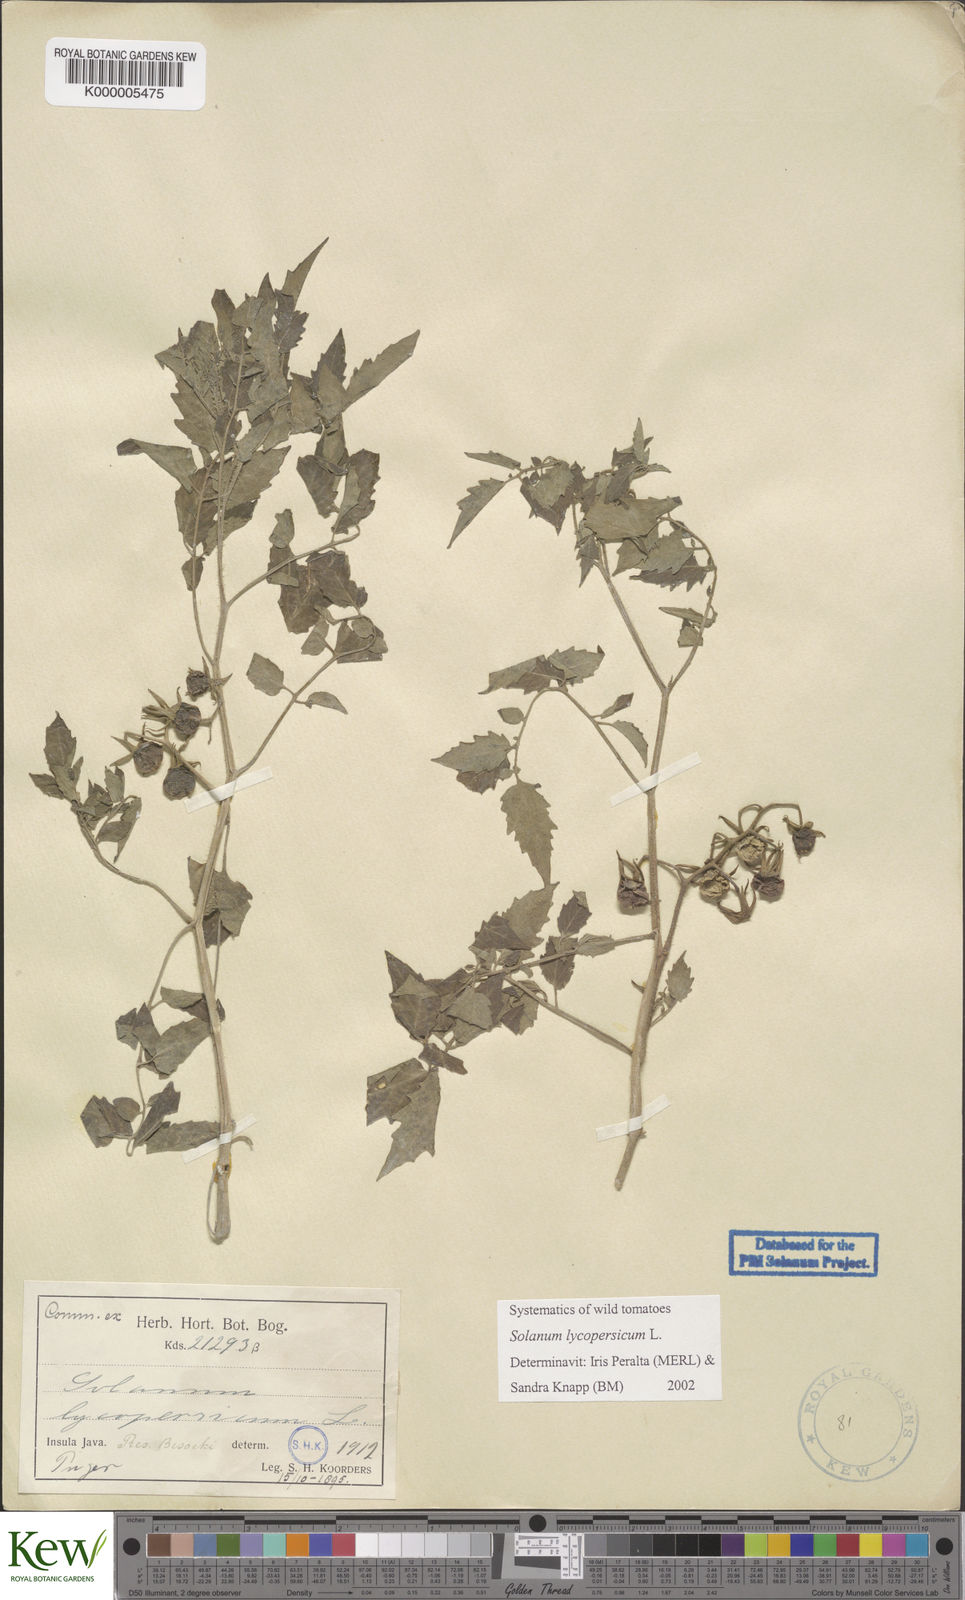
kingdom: Plantae
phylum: Tracheophyta
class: Magnoliopsida
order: Solanales
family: Solanaceae
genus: Solanum
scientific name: Solanum lycopersicum
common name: Garden tomato
